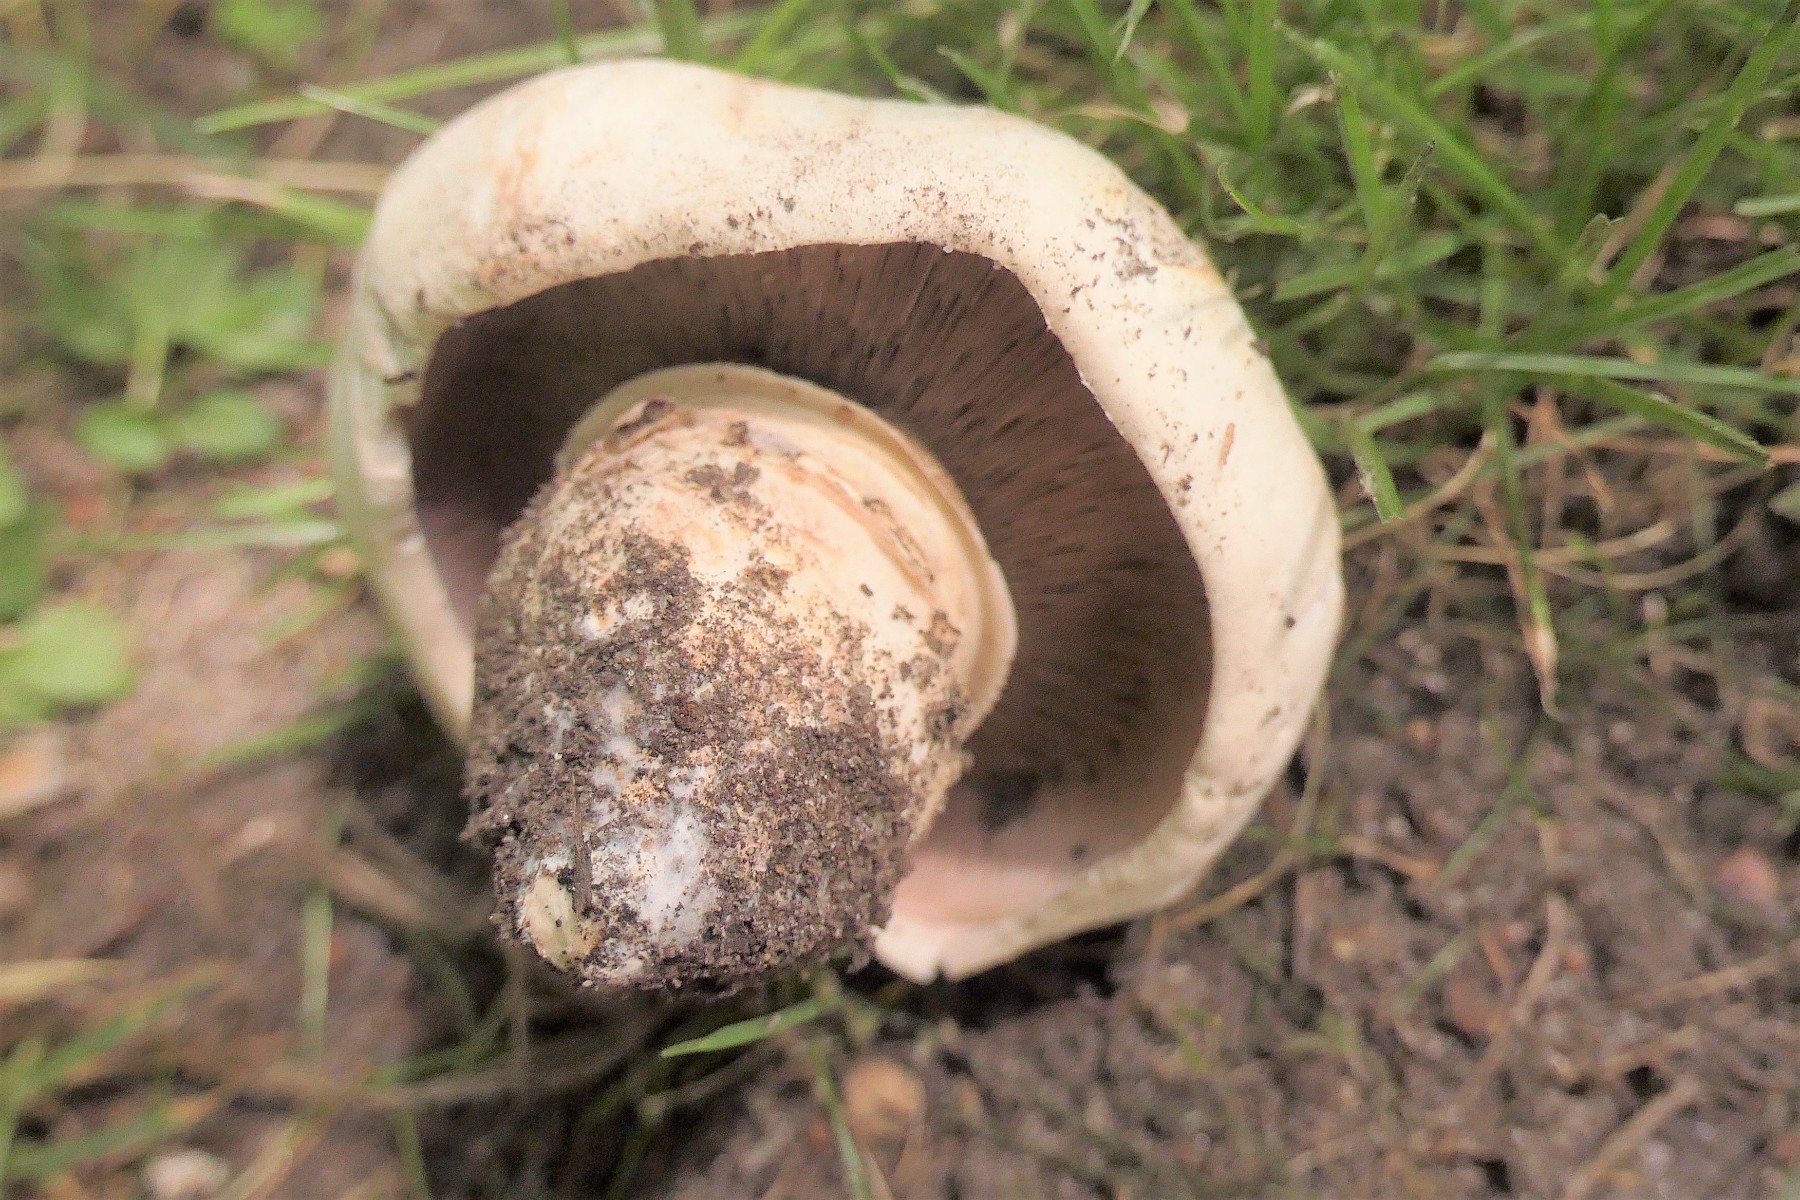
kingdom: Fungi
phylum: Basidiomycota
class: Agaricomycetes
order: Agaricales
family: Agaricaceae
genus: Agaricus
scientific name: Agaricus bitorquis
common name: vej-champignon
